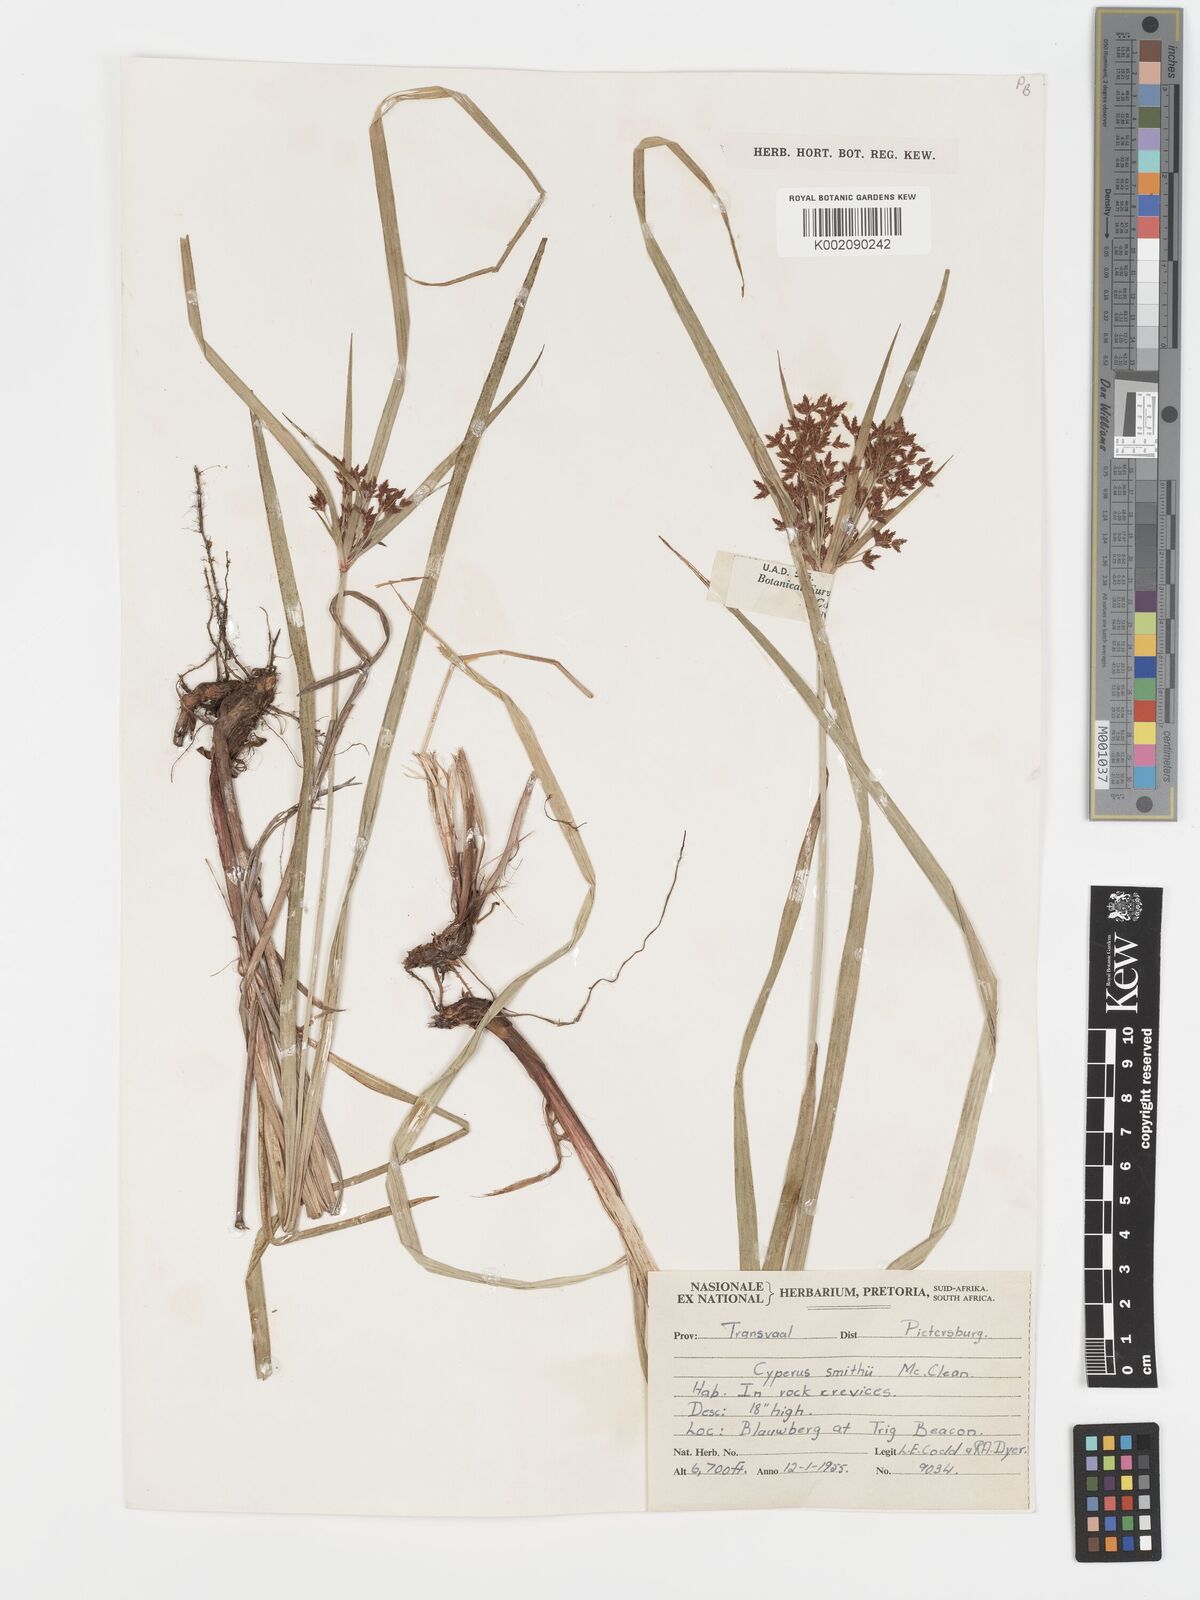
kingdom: Plantae
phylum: Tracheophyta
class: Liliopsida
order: Poales
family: Cyperaceae
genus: Cyperus
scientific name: Cyperus leptocladus
